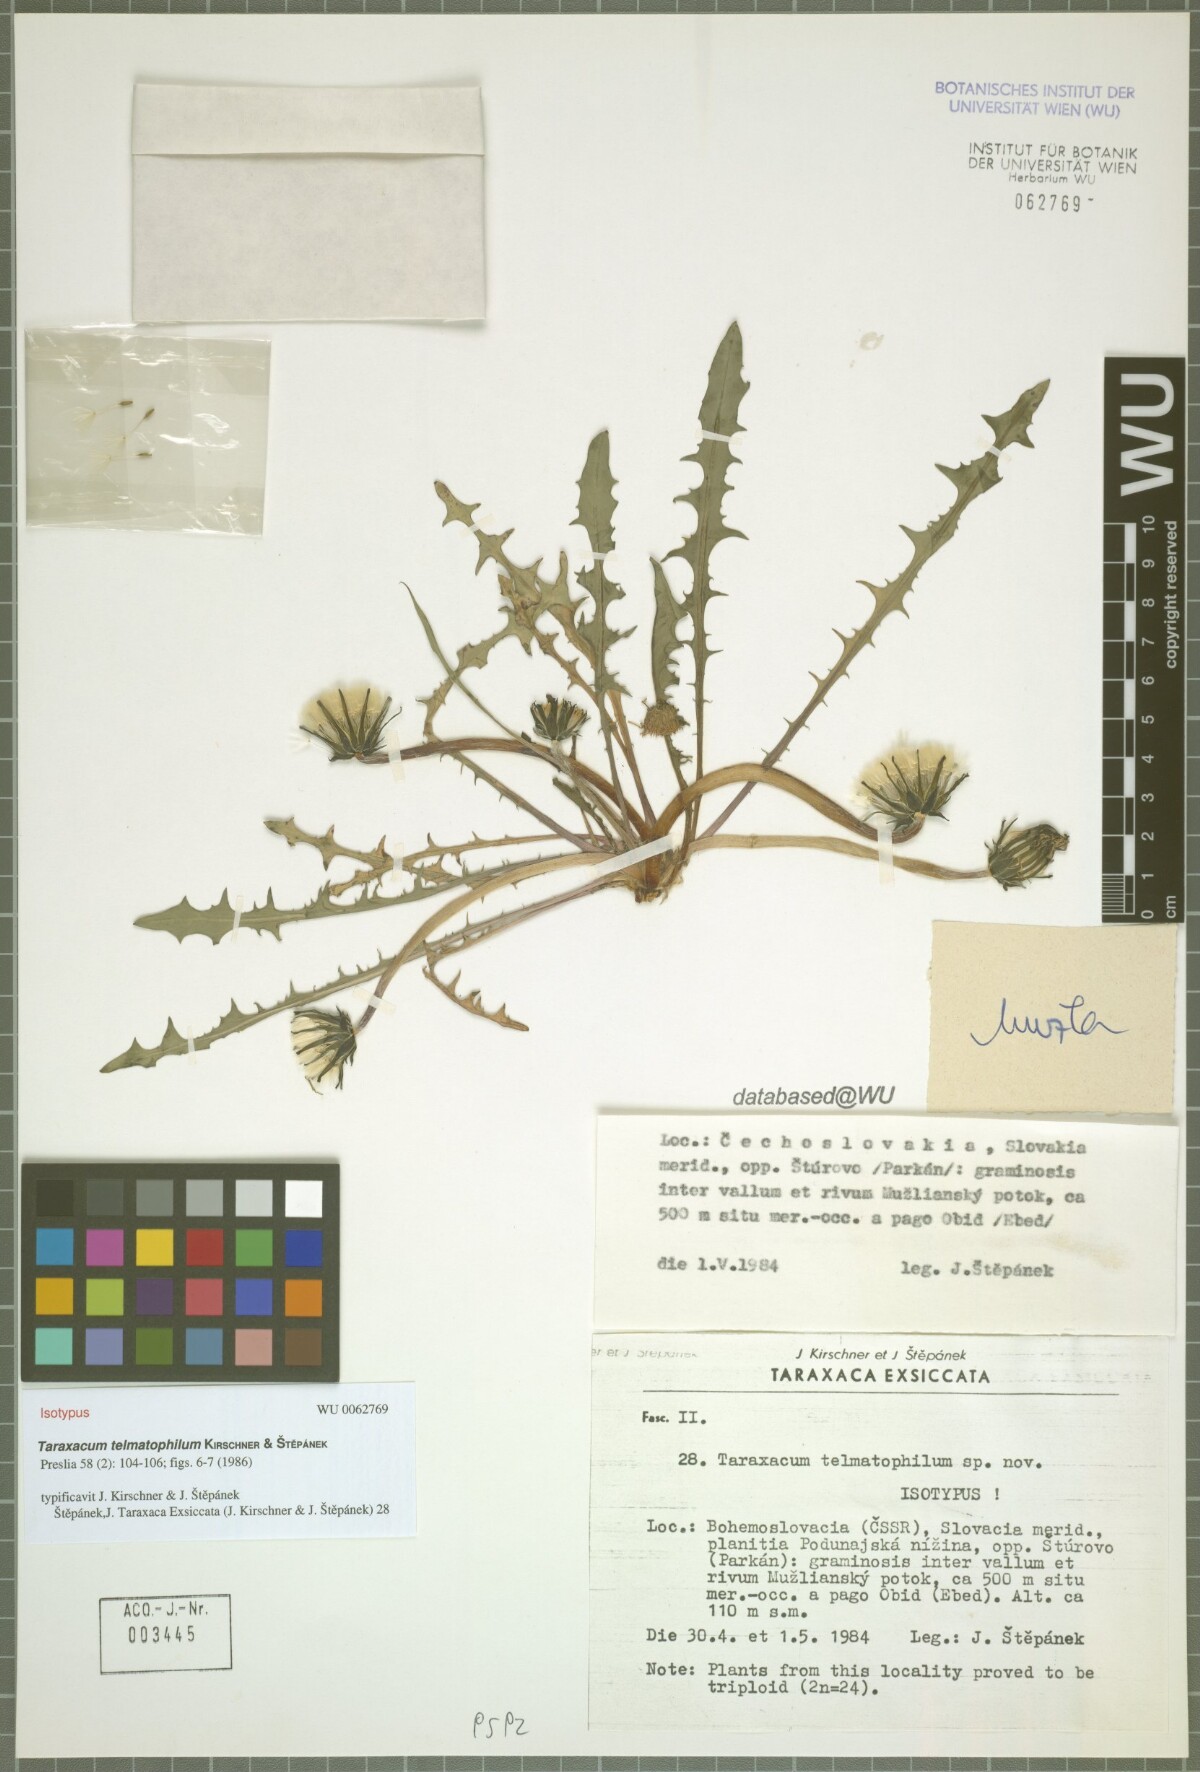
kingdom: Plantae
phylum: Tracheophyta
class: Magnoliopsida
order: Asterales
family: Asteraceae
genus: Taraxacum
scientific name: Taraxacum telmatophilum
